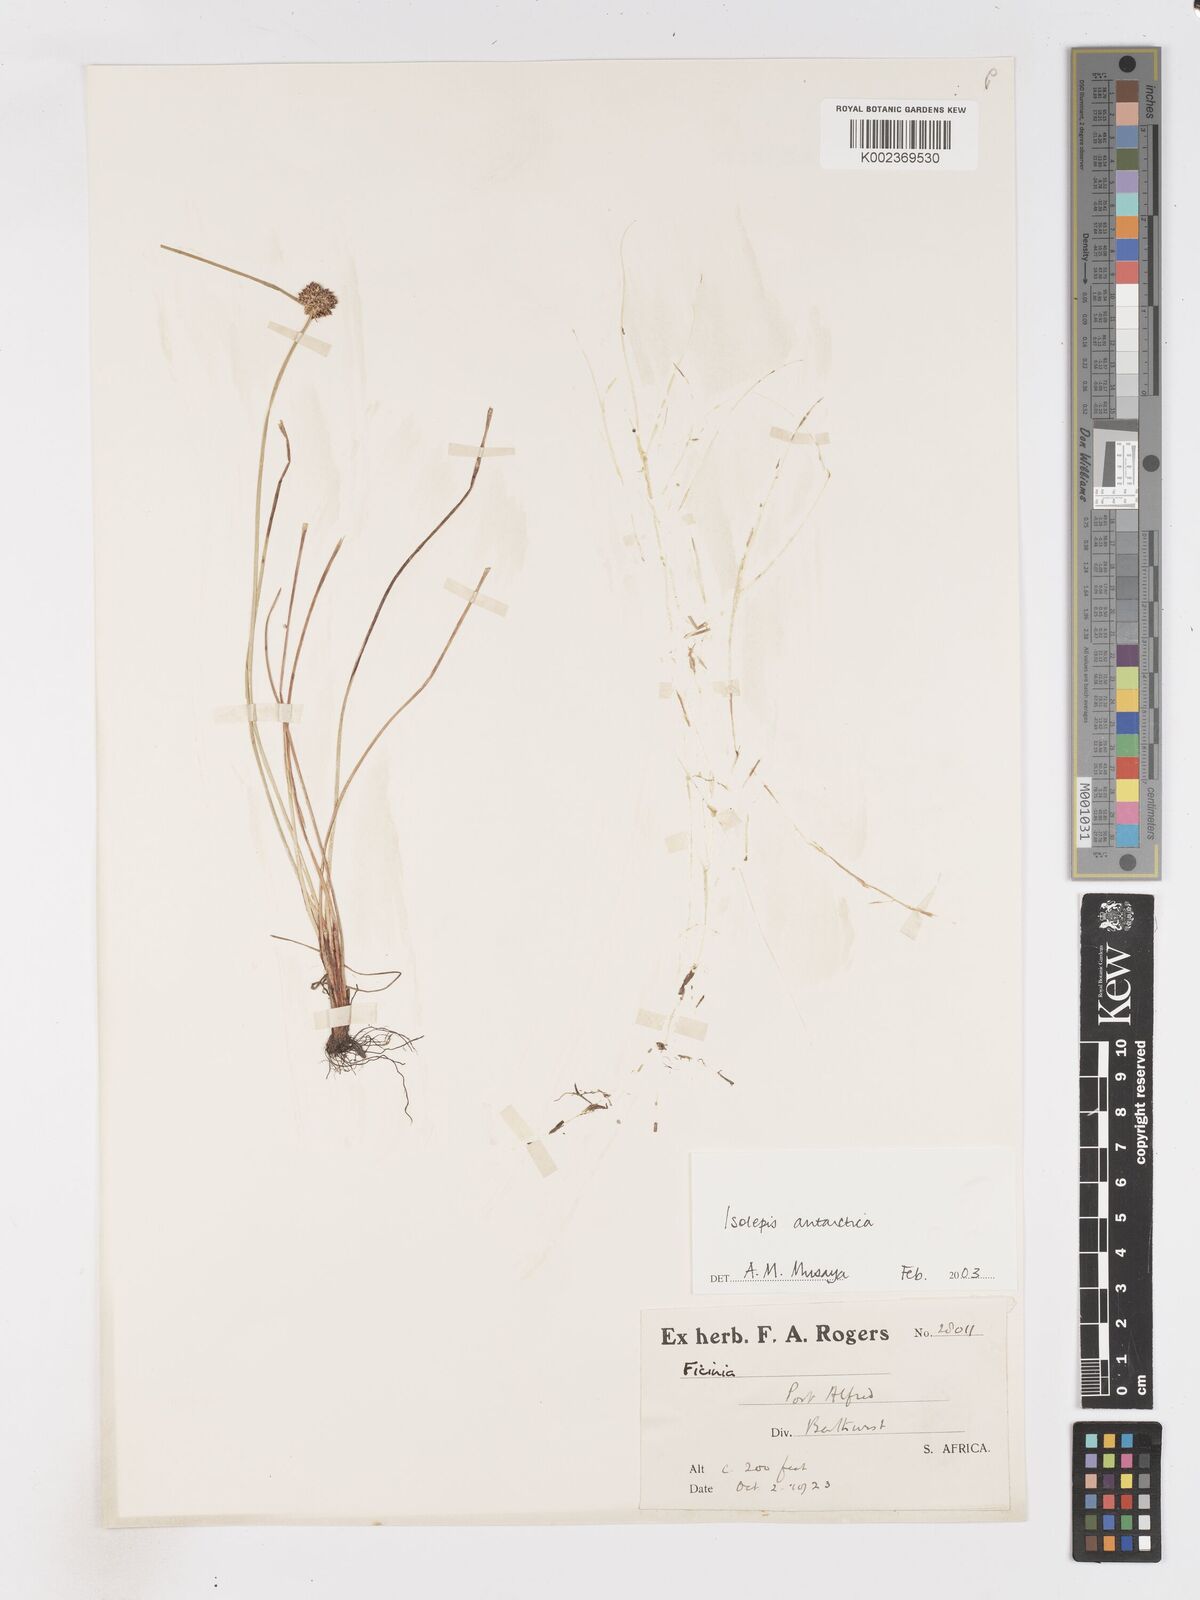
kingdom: Plantae
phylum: Tracheophyta
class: Liliopsida
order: Poales
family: Cyperaceae
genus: Isolepis
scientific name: Isolepis antarctica
